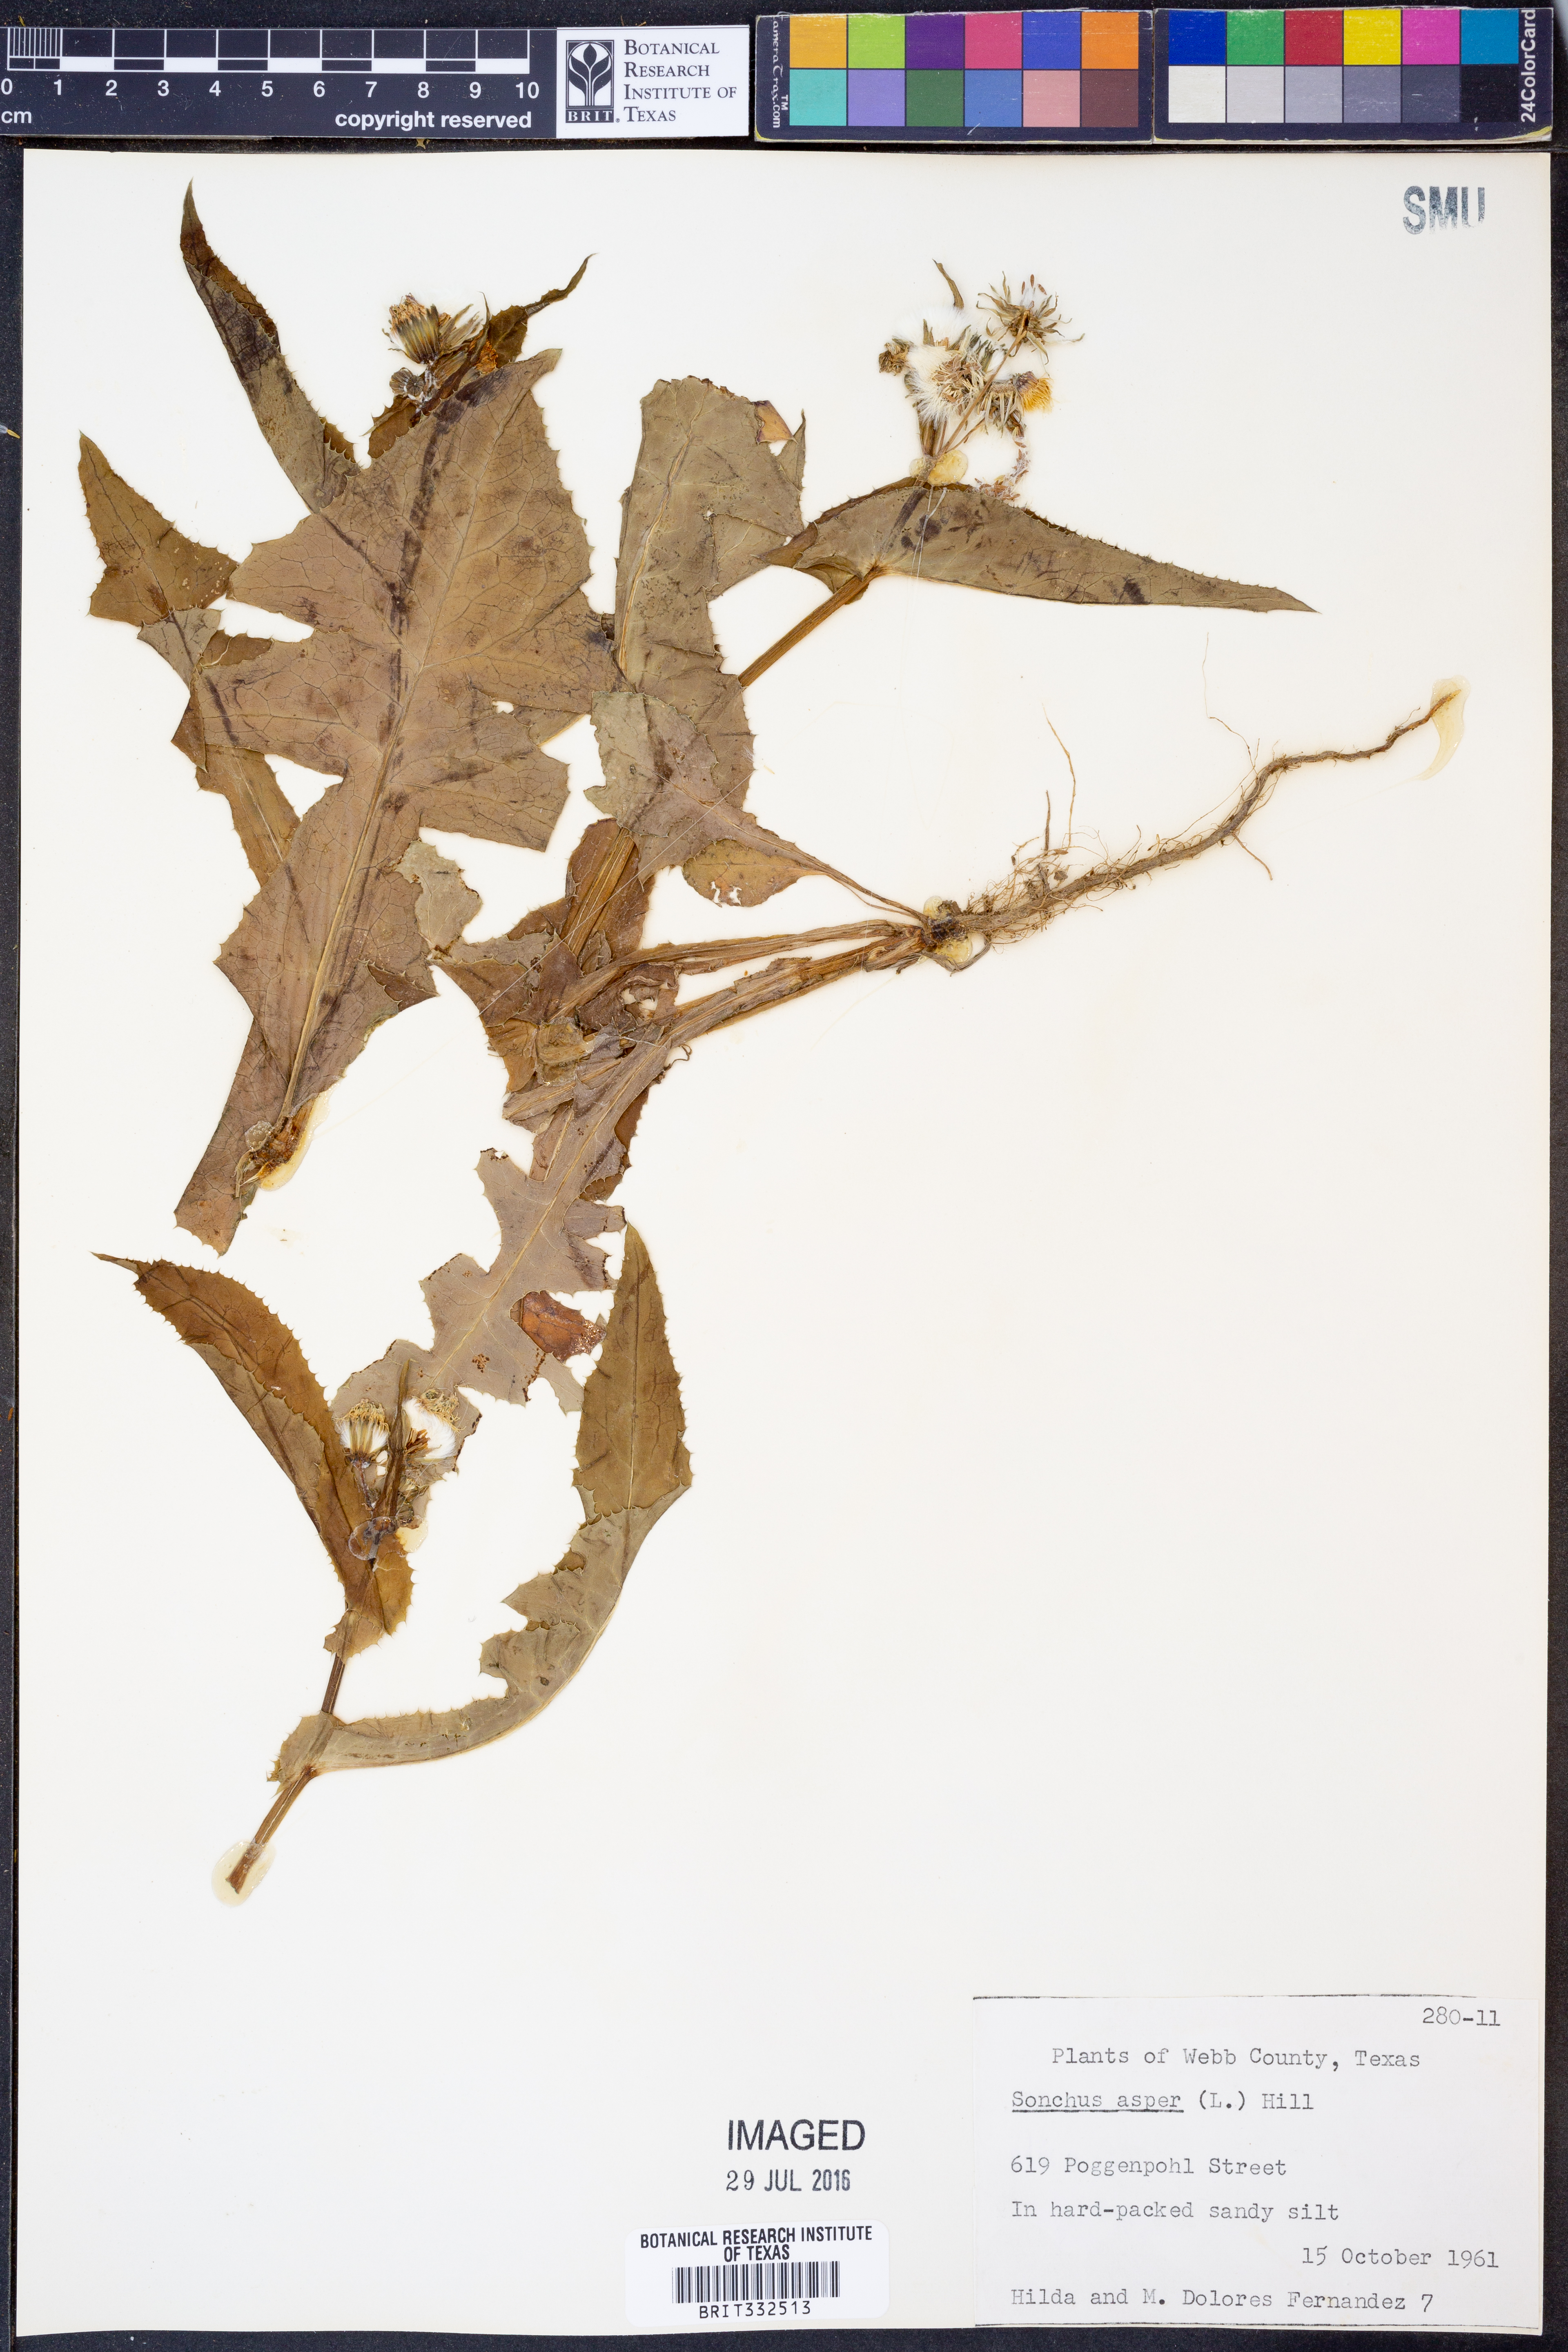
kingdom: Plantae
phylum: Tracheophyta
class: Magnoliopsida
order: Asterales
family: Asteraceae
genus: Sonchus
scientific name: Sonchus asper
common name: Prickly sow-thistle
